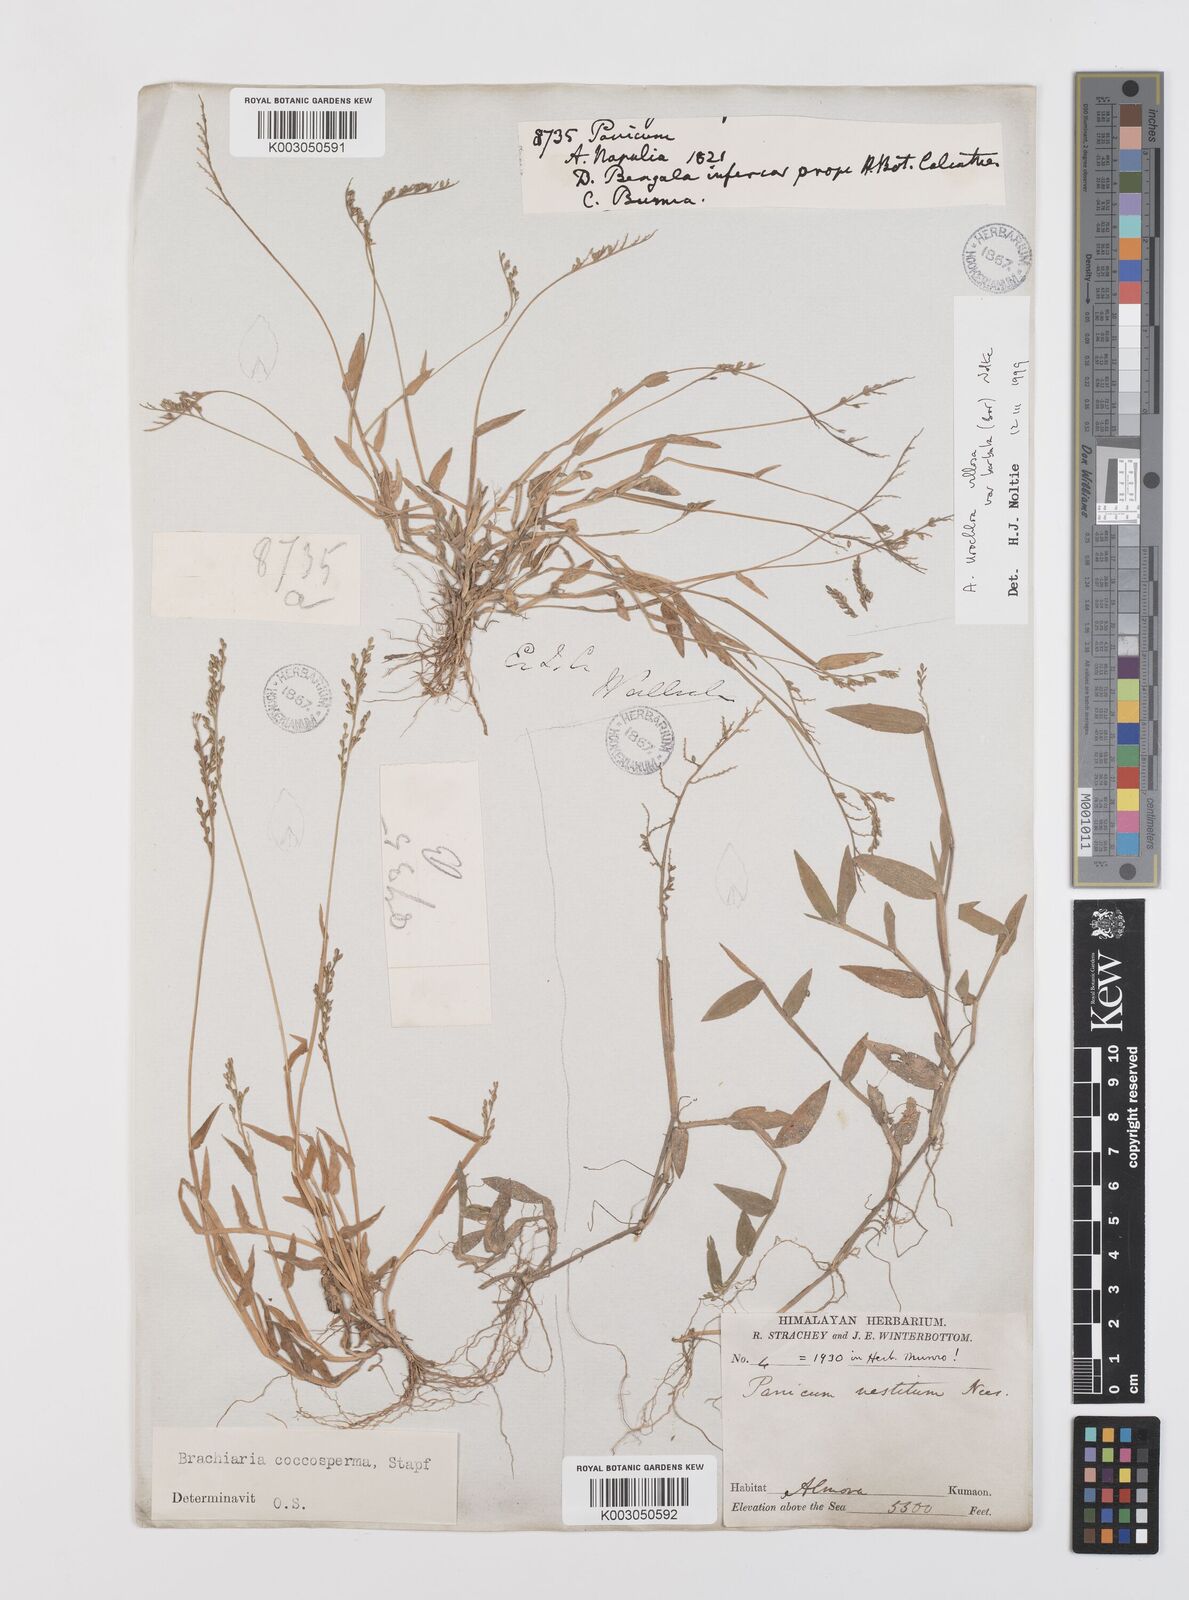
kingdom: Plantae
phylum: Tracheophyta
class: Liliopsida
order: Poales
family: Poaceae
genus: Urochloa
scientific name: Urochloa villosa
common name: Hairy signalgrass
